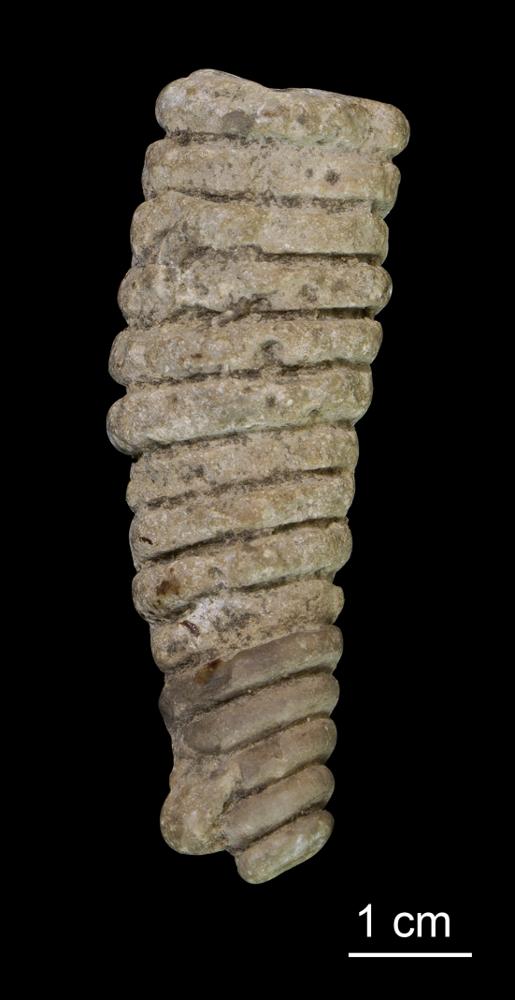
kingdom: Animalia
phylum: Mollusca
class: Cephalopoda
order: Orthocerida
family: Orthoceratidae
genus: Orthoceras
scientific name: Orthoceras
